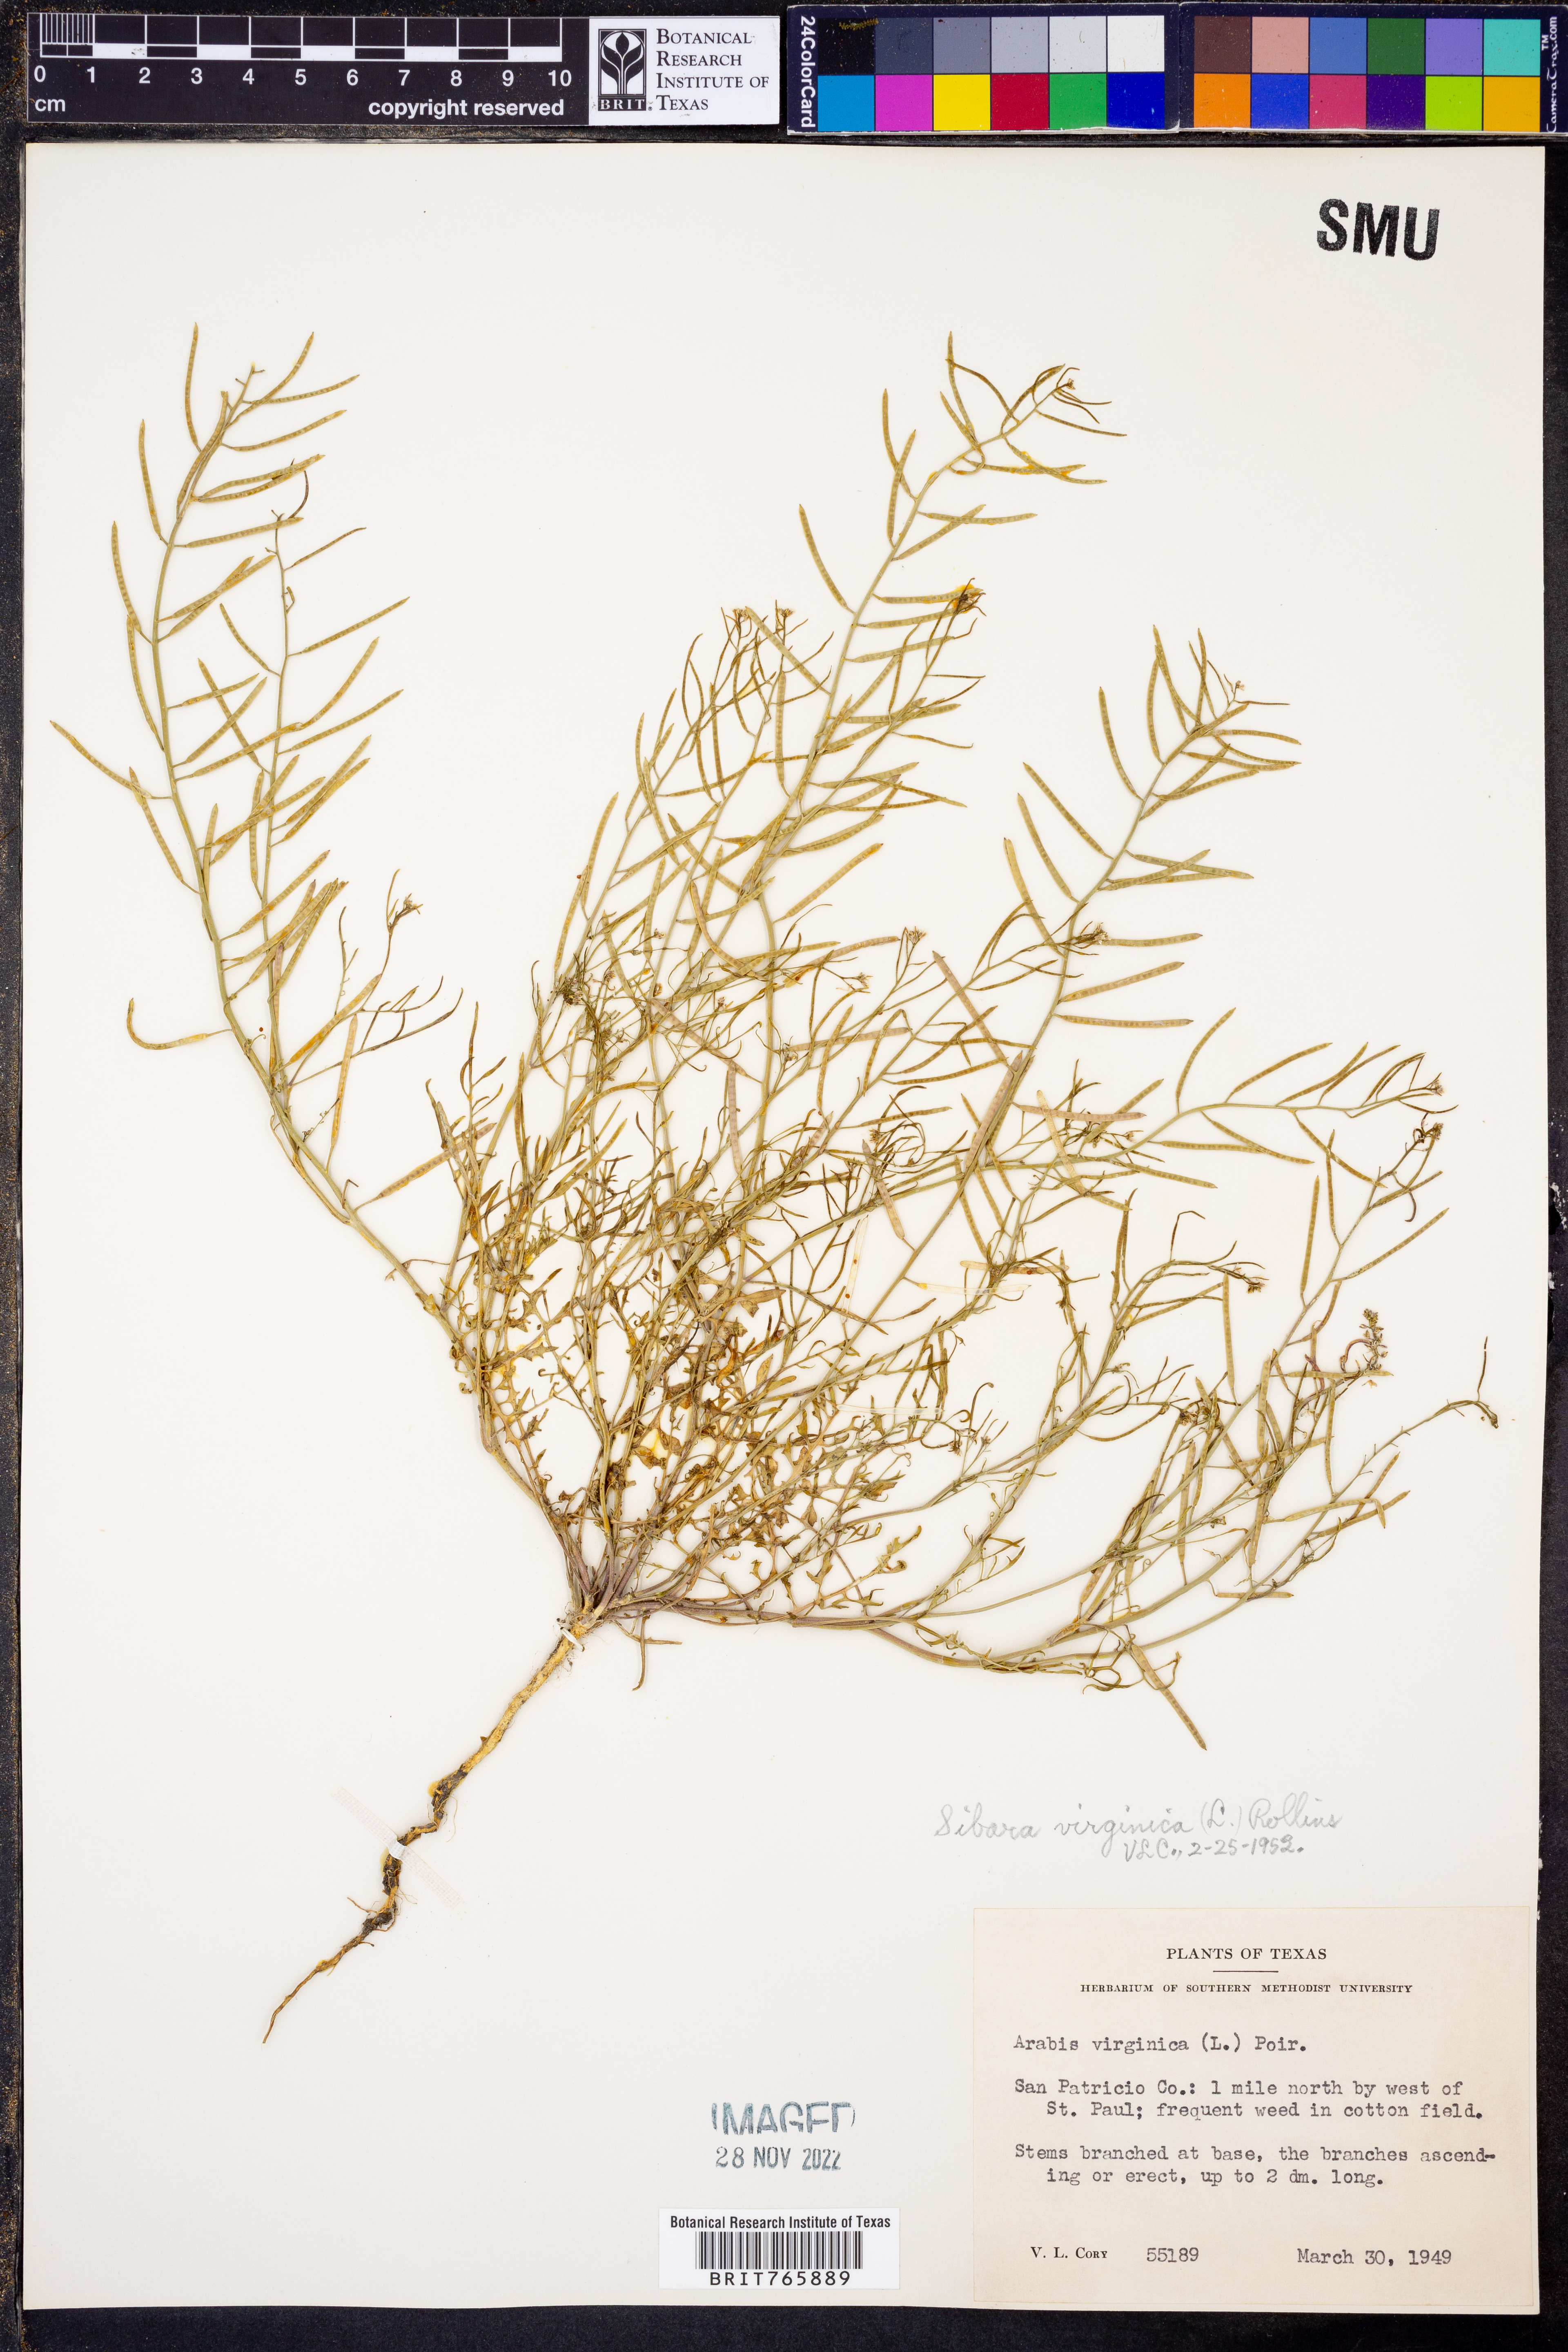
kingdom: Plantae
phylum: Tracheophyta
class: Magnoliopsida
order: Brassicales
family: Brassicaceae
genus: Planodes
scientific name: Planodes virginicum
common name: Virginia cress
